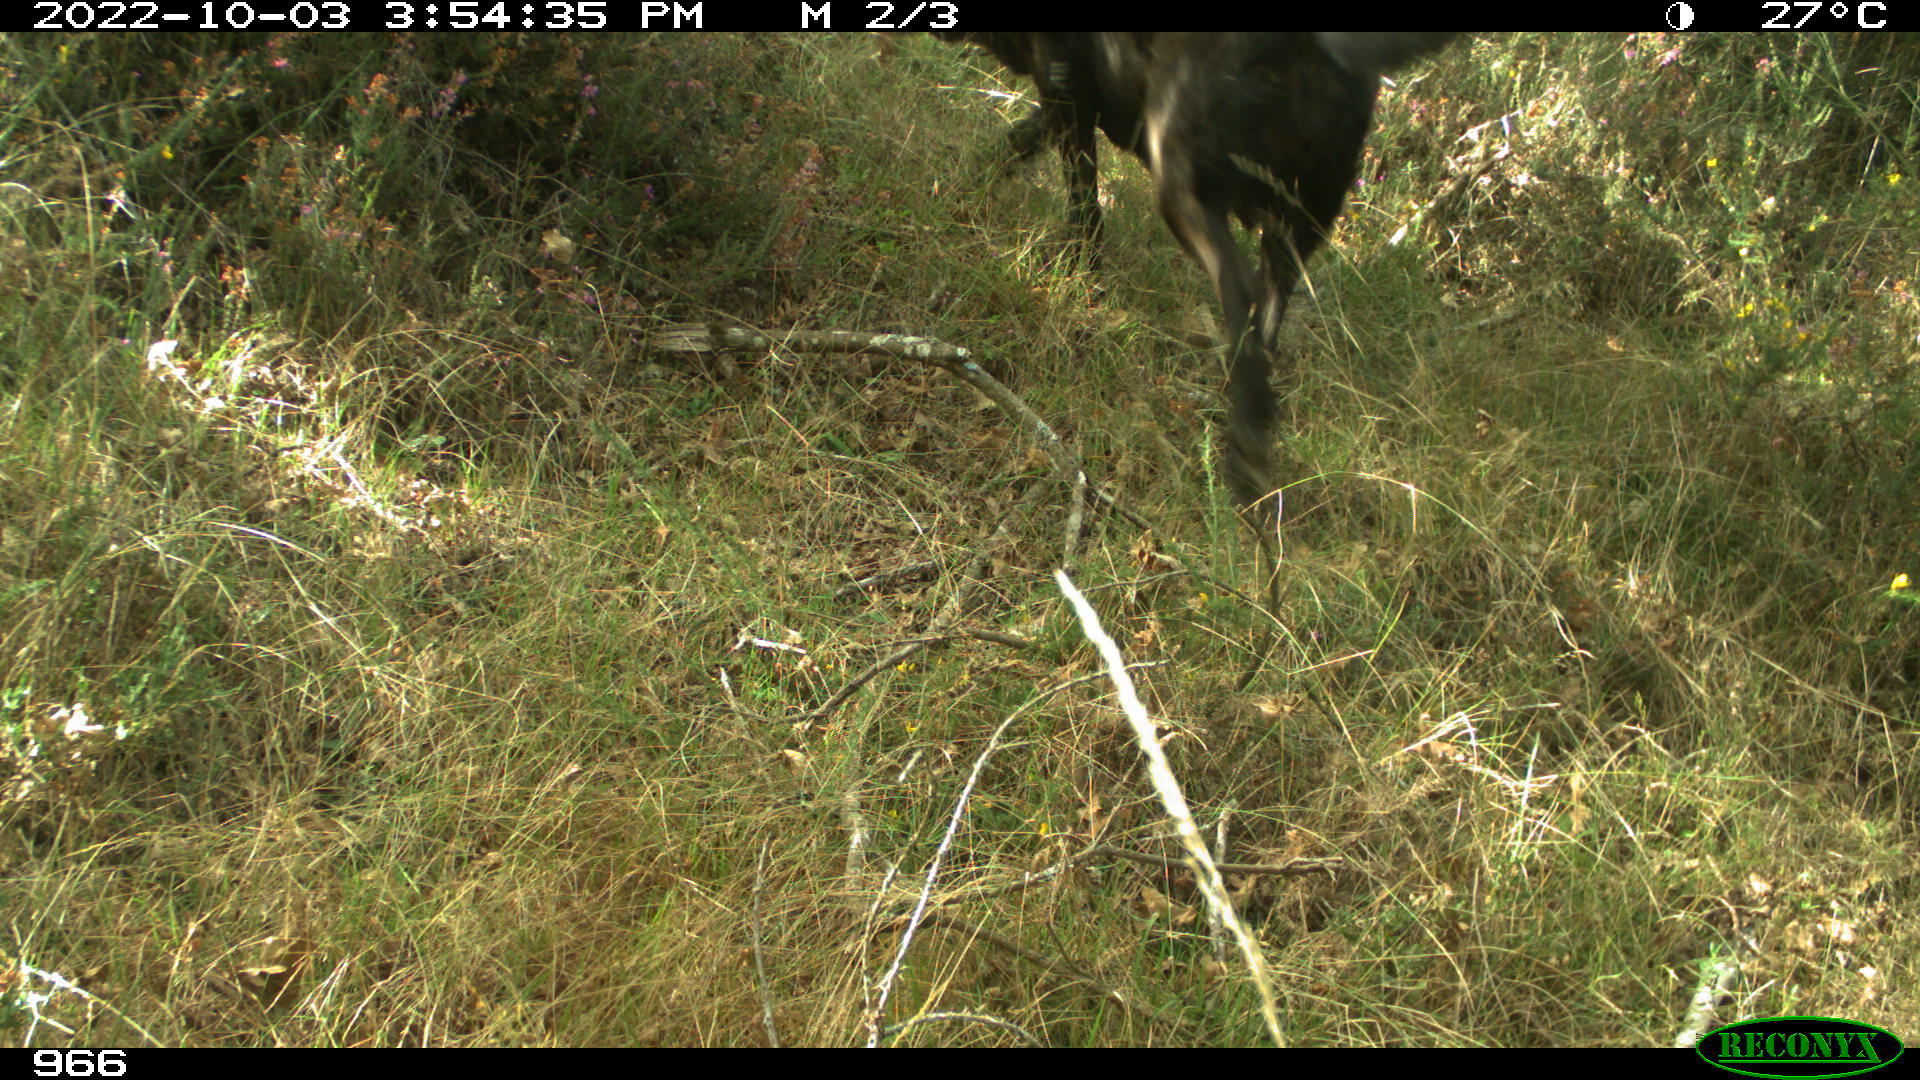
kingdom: Animalia
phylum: Chordata
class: Mammalia
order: Carnivora
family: Canidae
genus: Canis
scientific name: Canis lupus
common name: Gray wolf
